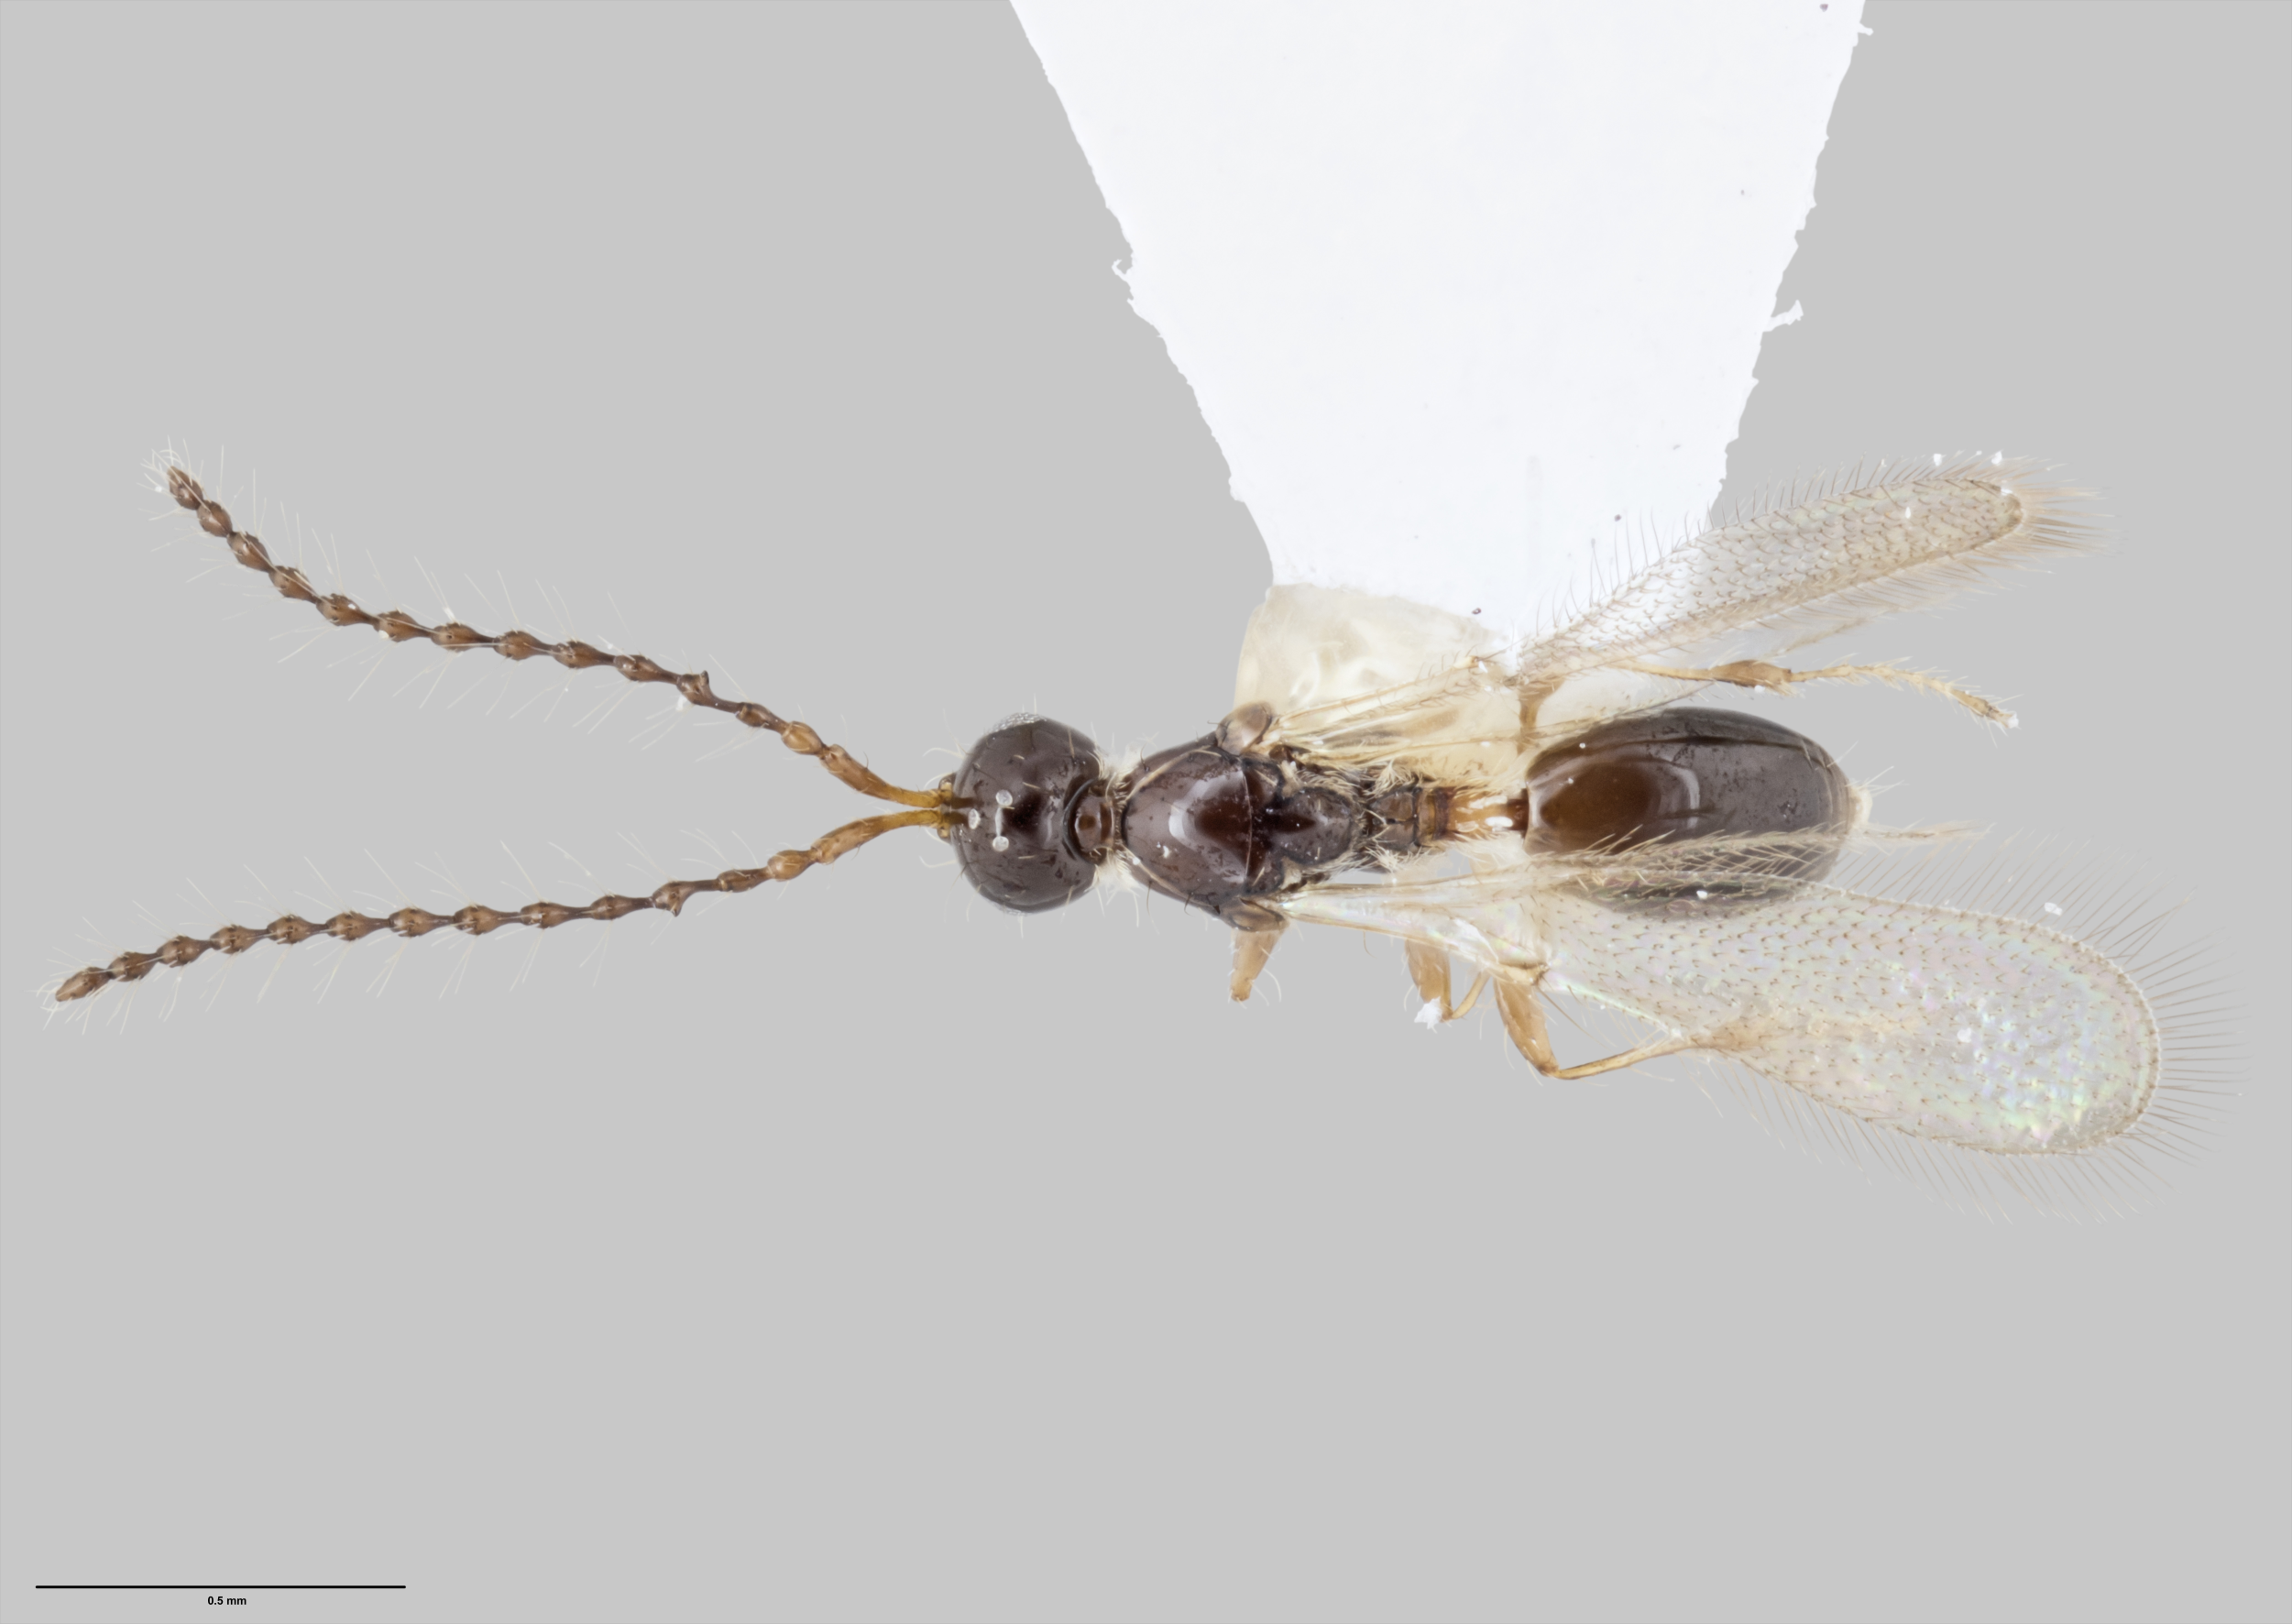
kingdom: Animalia
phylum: Arthropoda
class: Insecta
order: Hymenoptera
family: Diapriidae
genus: Trichopria
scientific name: Trichopria
